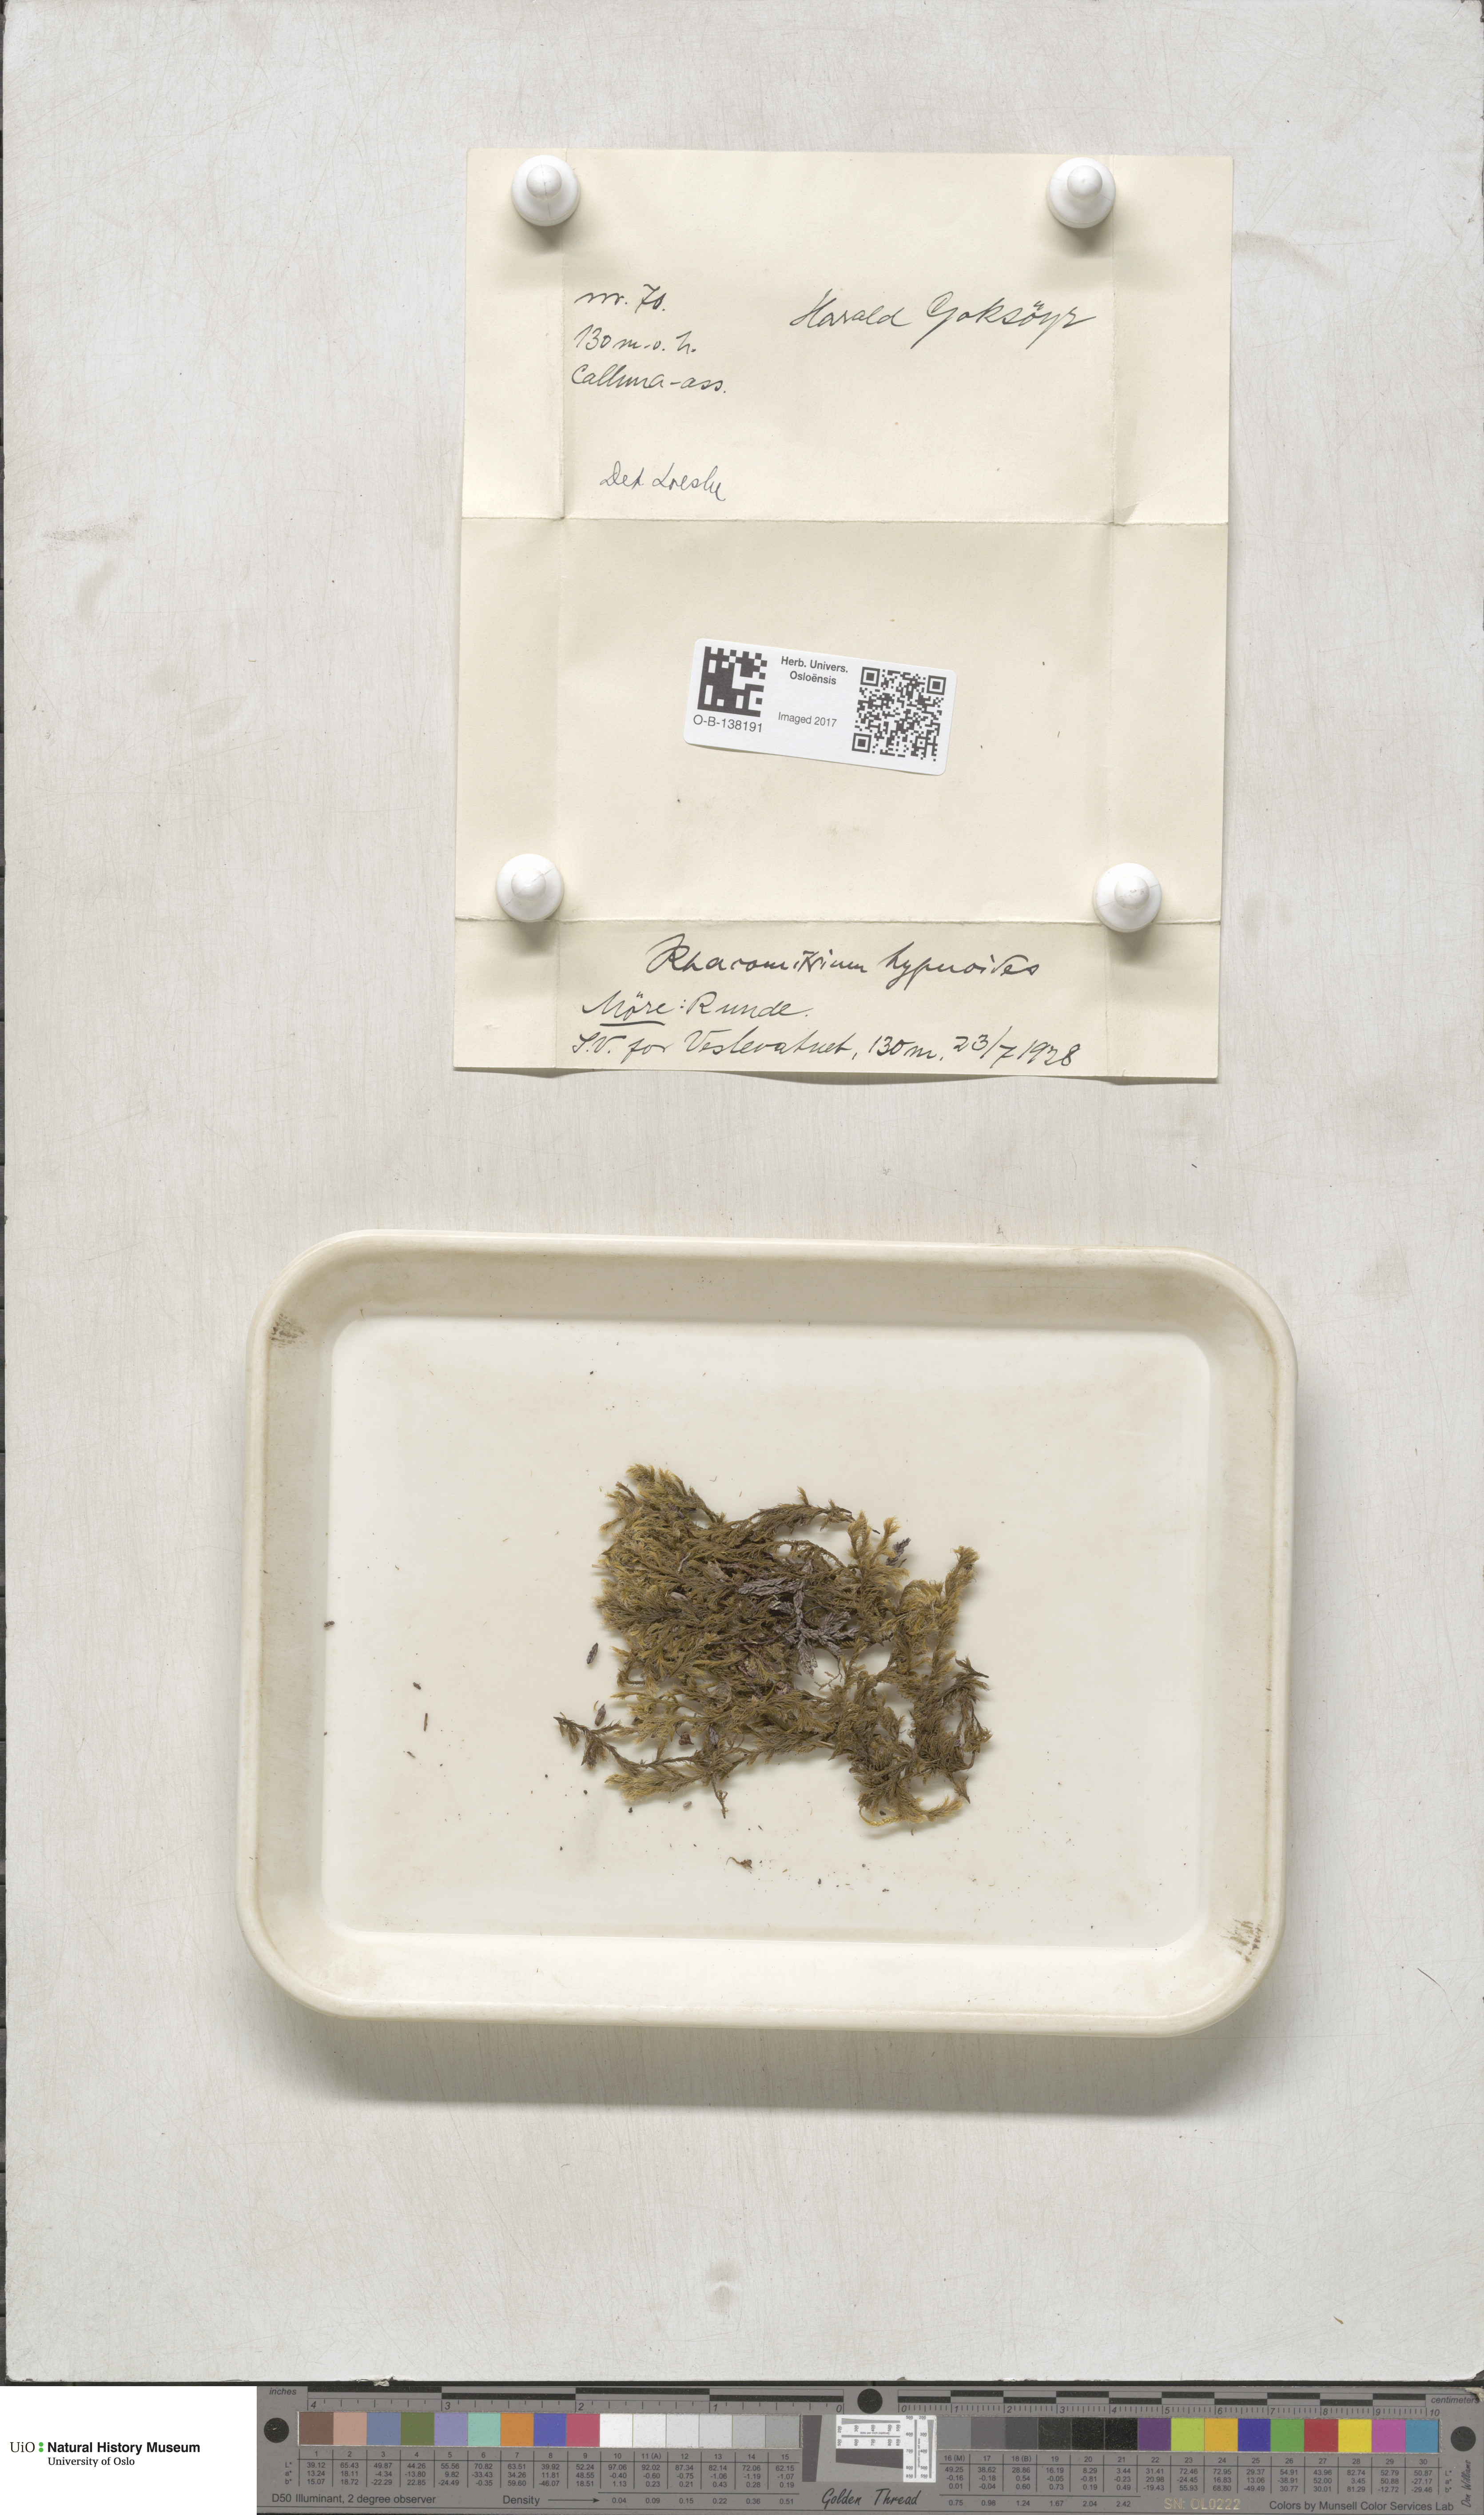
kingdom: Plantae
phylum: Bryophyta
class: Bryopsida
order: Grimmiales
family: Grimmiaceae
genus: Racomitrium
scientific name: Racomitrium lanuginosum
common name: Hoary rock moss
